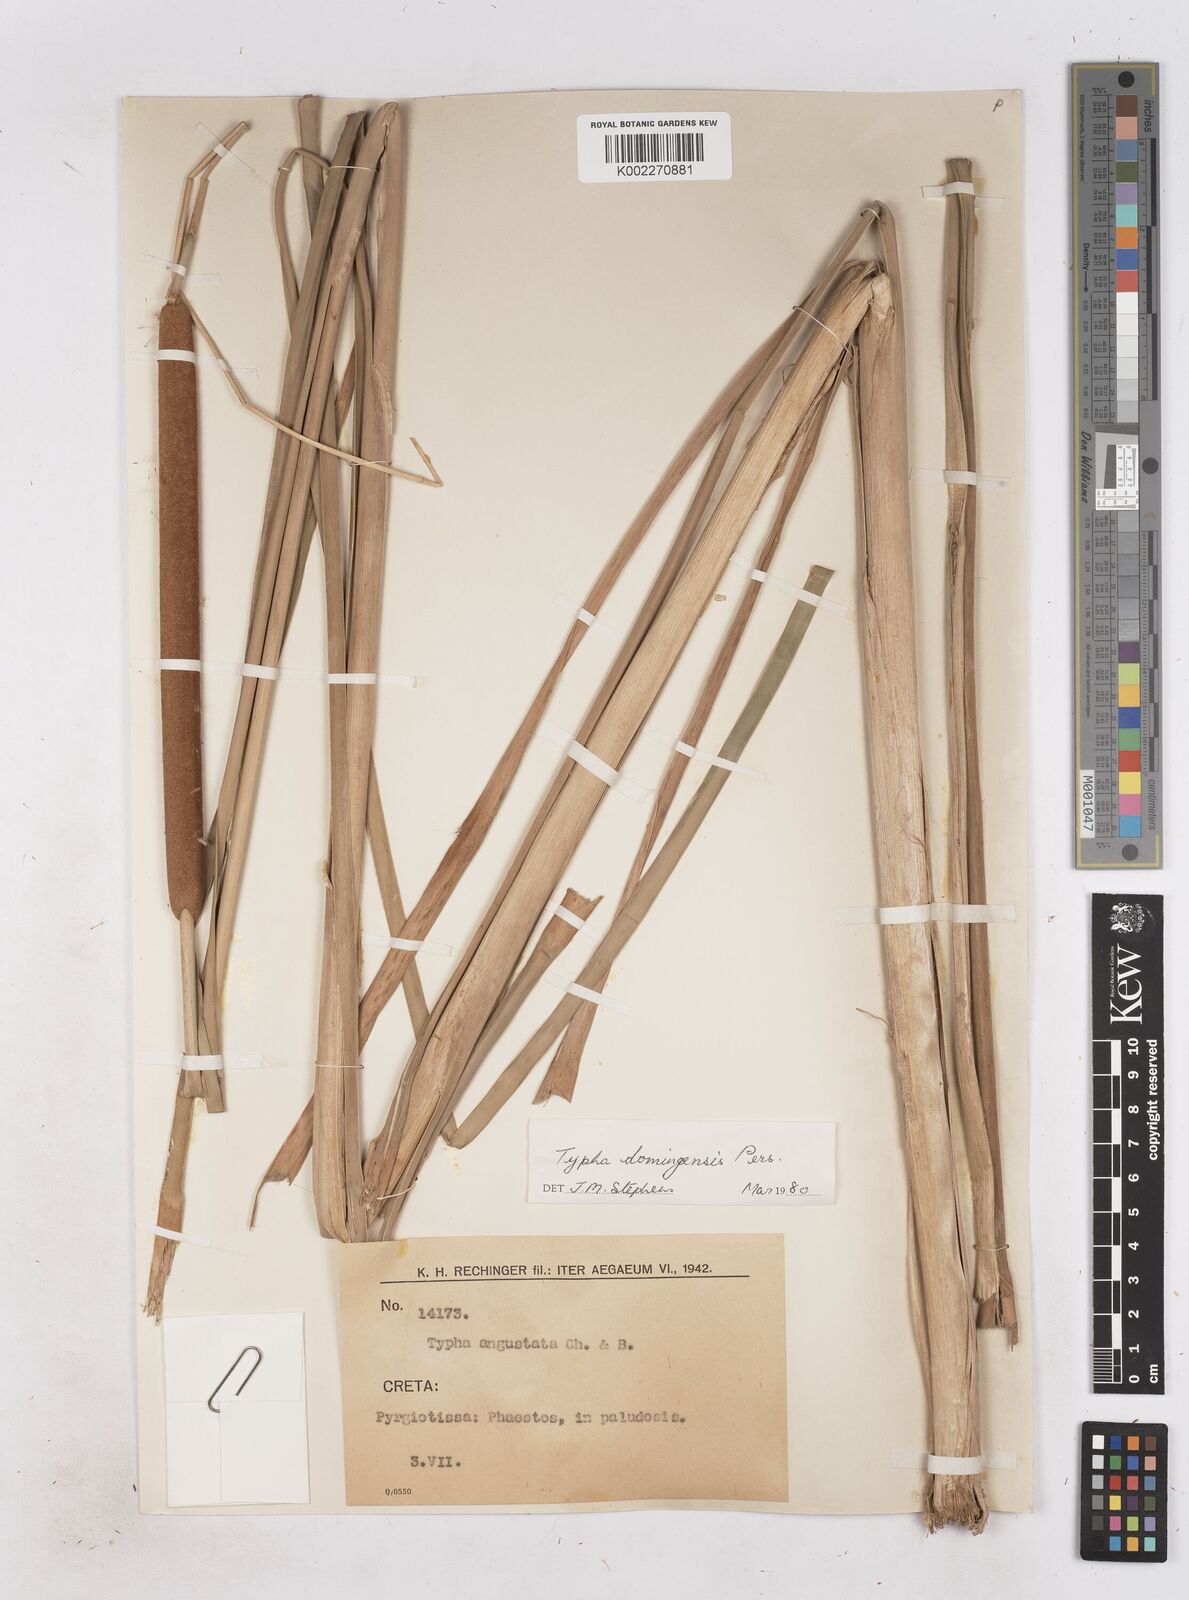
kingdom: Plantae
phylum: Tracheophyta
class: Liliopsida
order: Poales
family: Typhaceae
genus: Typha
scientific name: Typha domingensis
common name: Southern cattail
